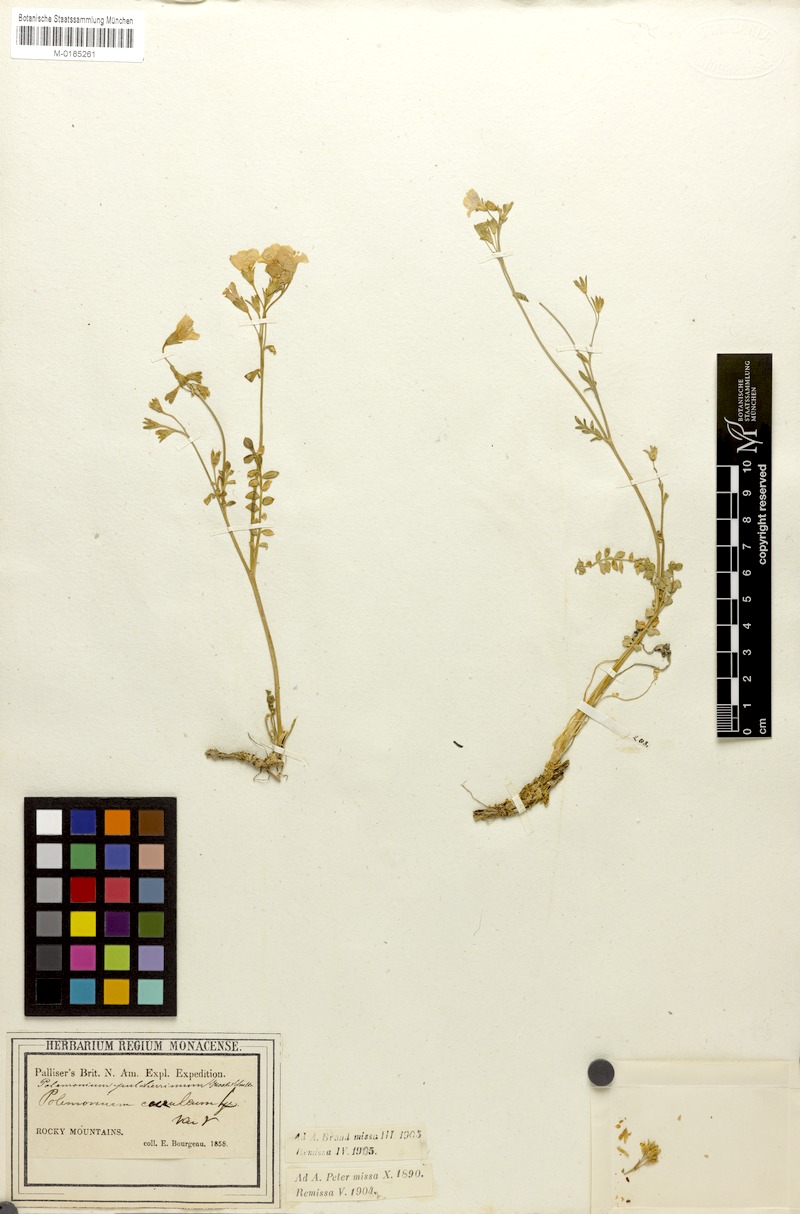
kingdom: Plantae
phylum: Tracheophyta
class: Magnoliopsida
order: Ericales
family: Polemoniaceae
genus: Polemonium
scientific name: Polemonium pulcherrimum
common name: Short jacob's-ladder
